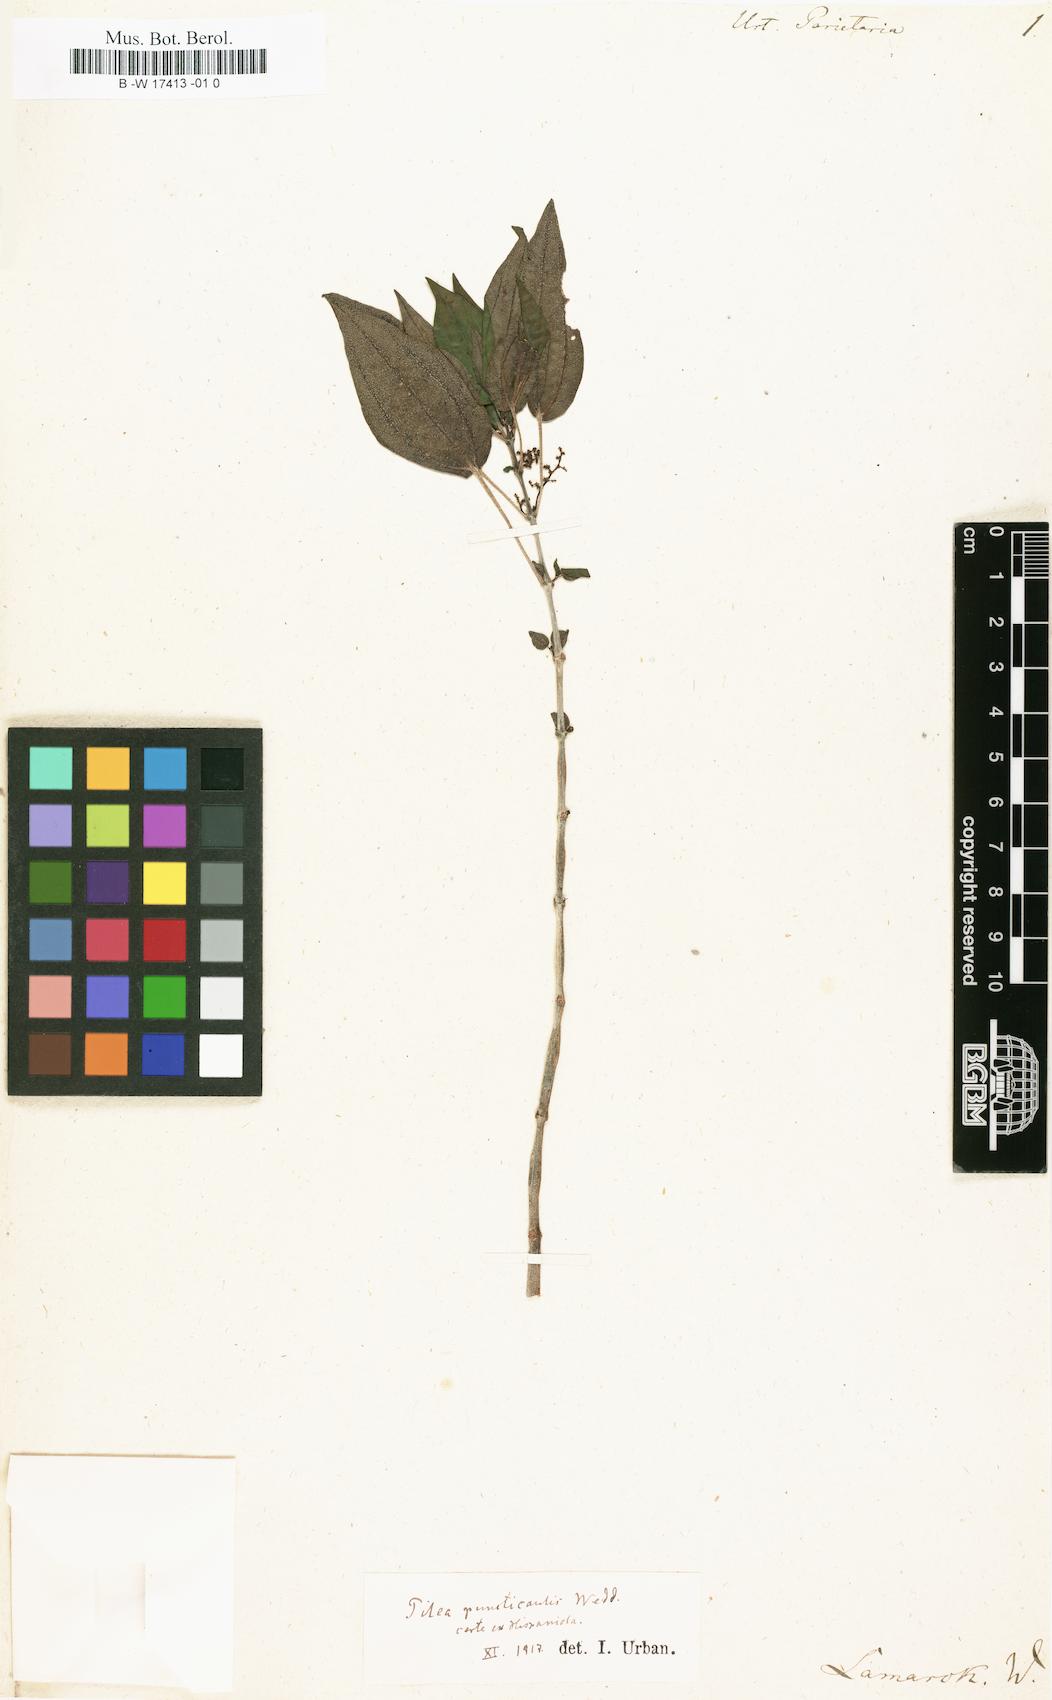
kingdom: Plantae
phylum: Tracheophyta
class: Magnoliopsida
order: Rosales
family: Urticaceae
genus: Pilea
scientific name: Pilea parietaria
